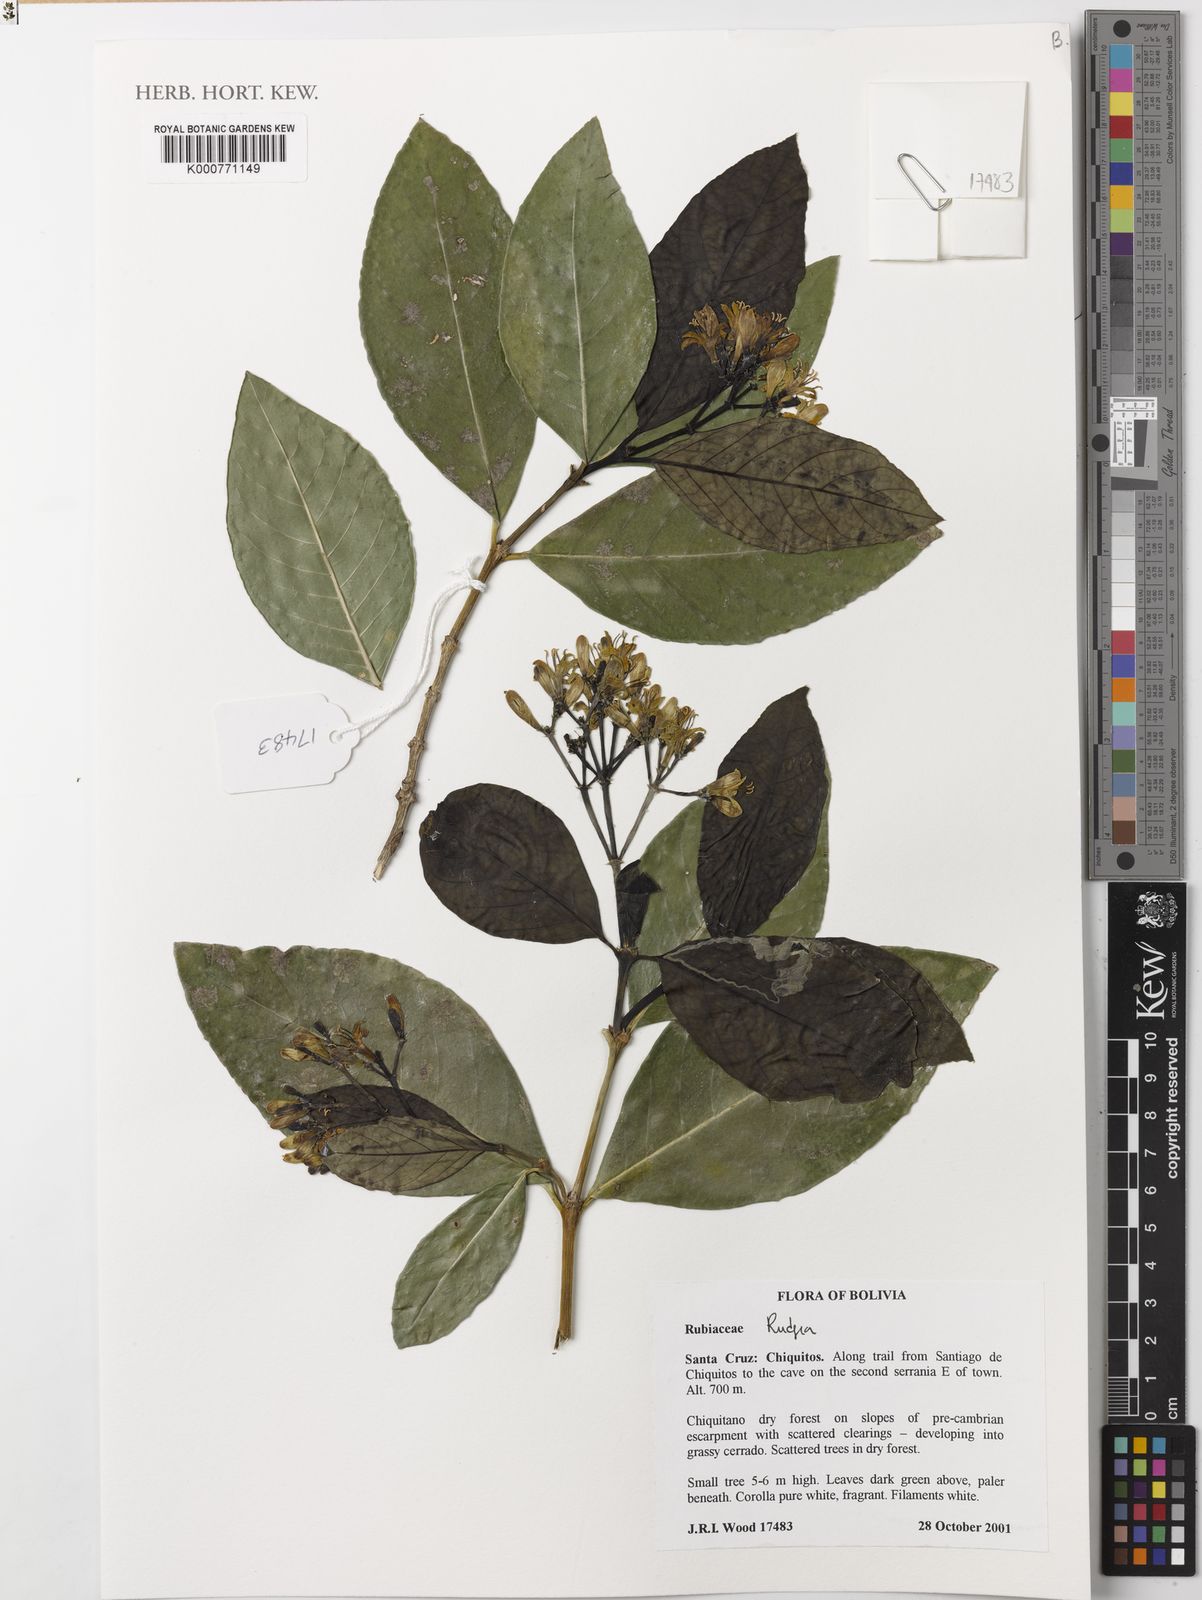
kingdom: Plantae
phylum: Tracheophyta
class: Magnoliopsida
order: Gentianales
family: Rubiaceae
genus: Rudgea
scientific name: Rudgea
